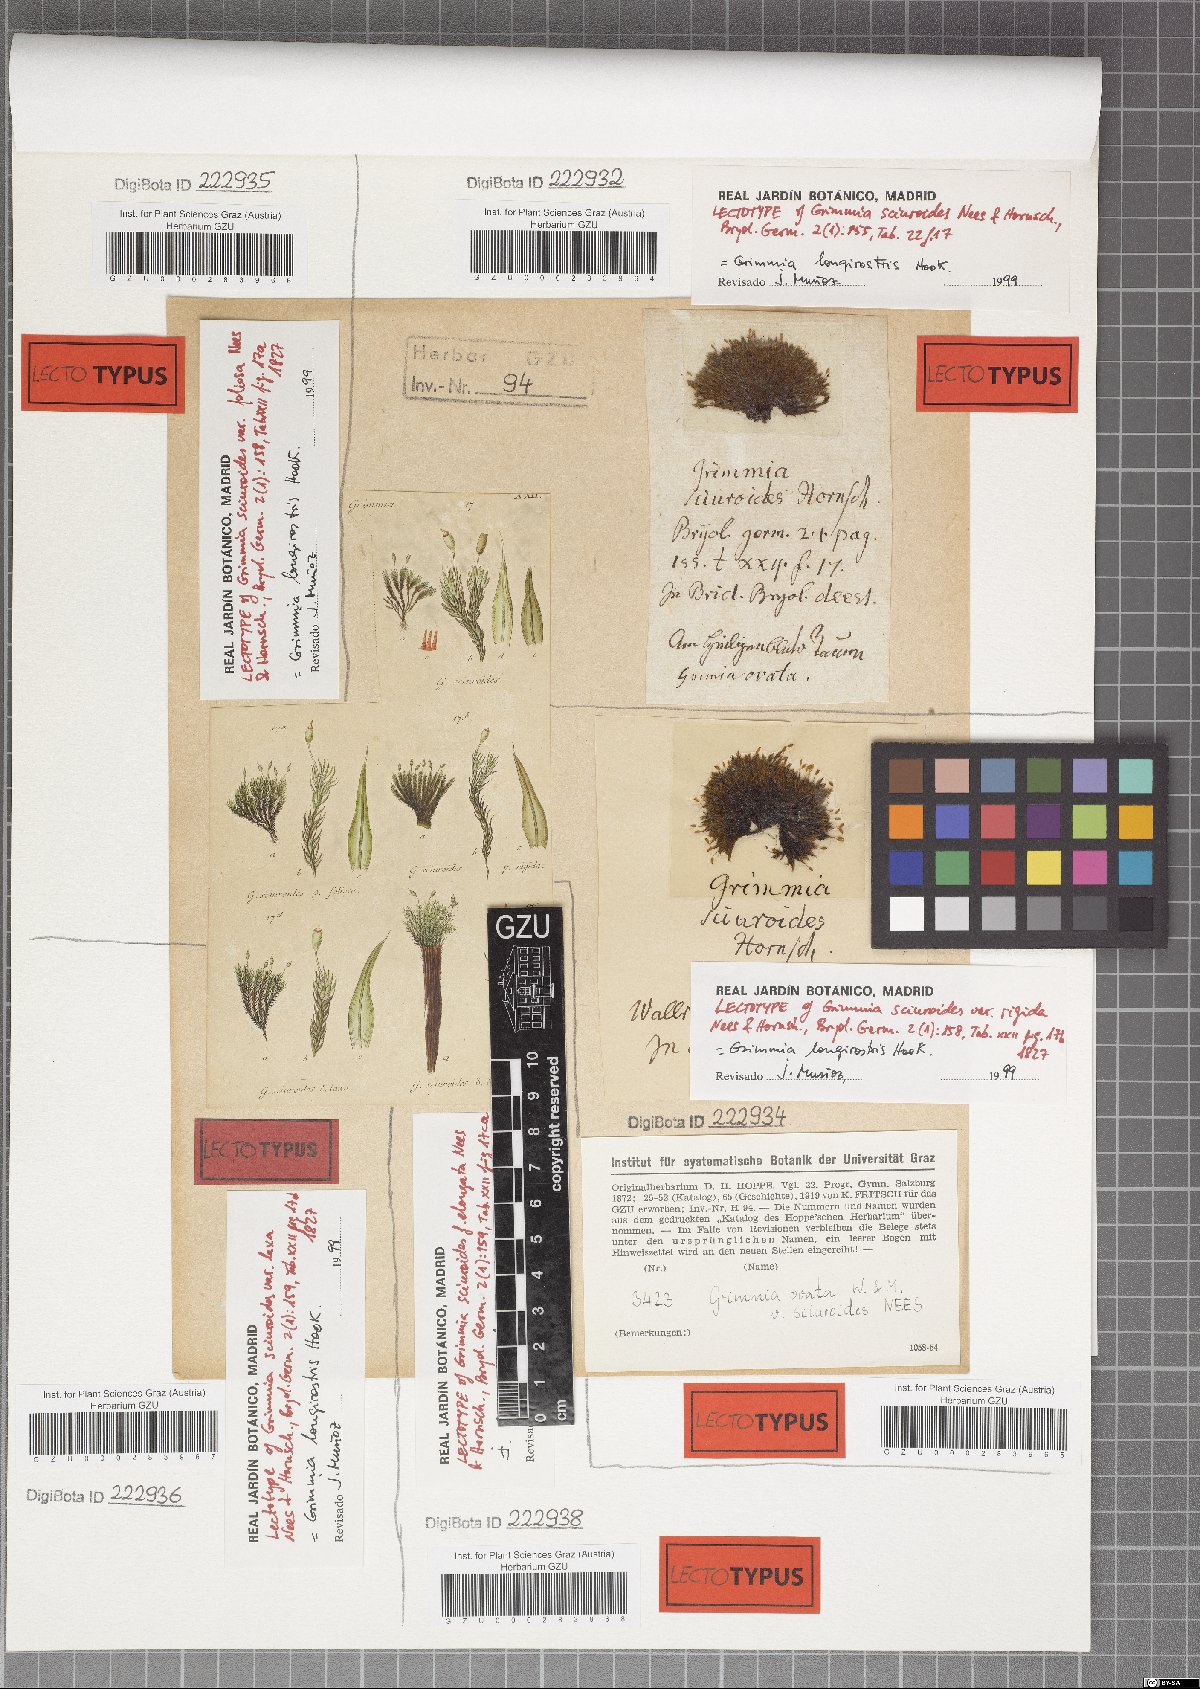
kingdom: Plantae
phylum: Bryophyta
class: Bryopsida
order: Grimmiales
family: Grimmiaceae
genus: Grimmia
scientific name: Grimmia longirostris
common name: Long-beaked grimmia
